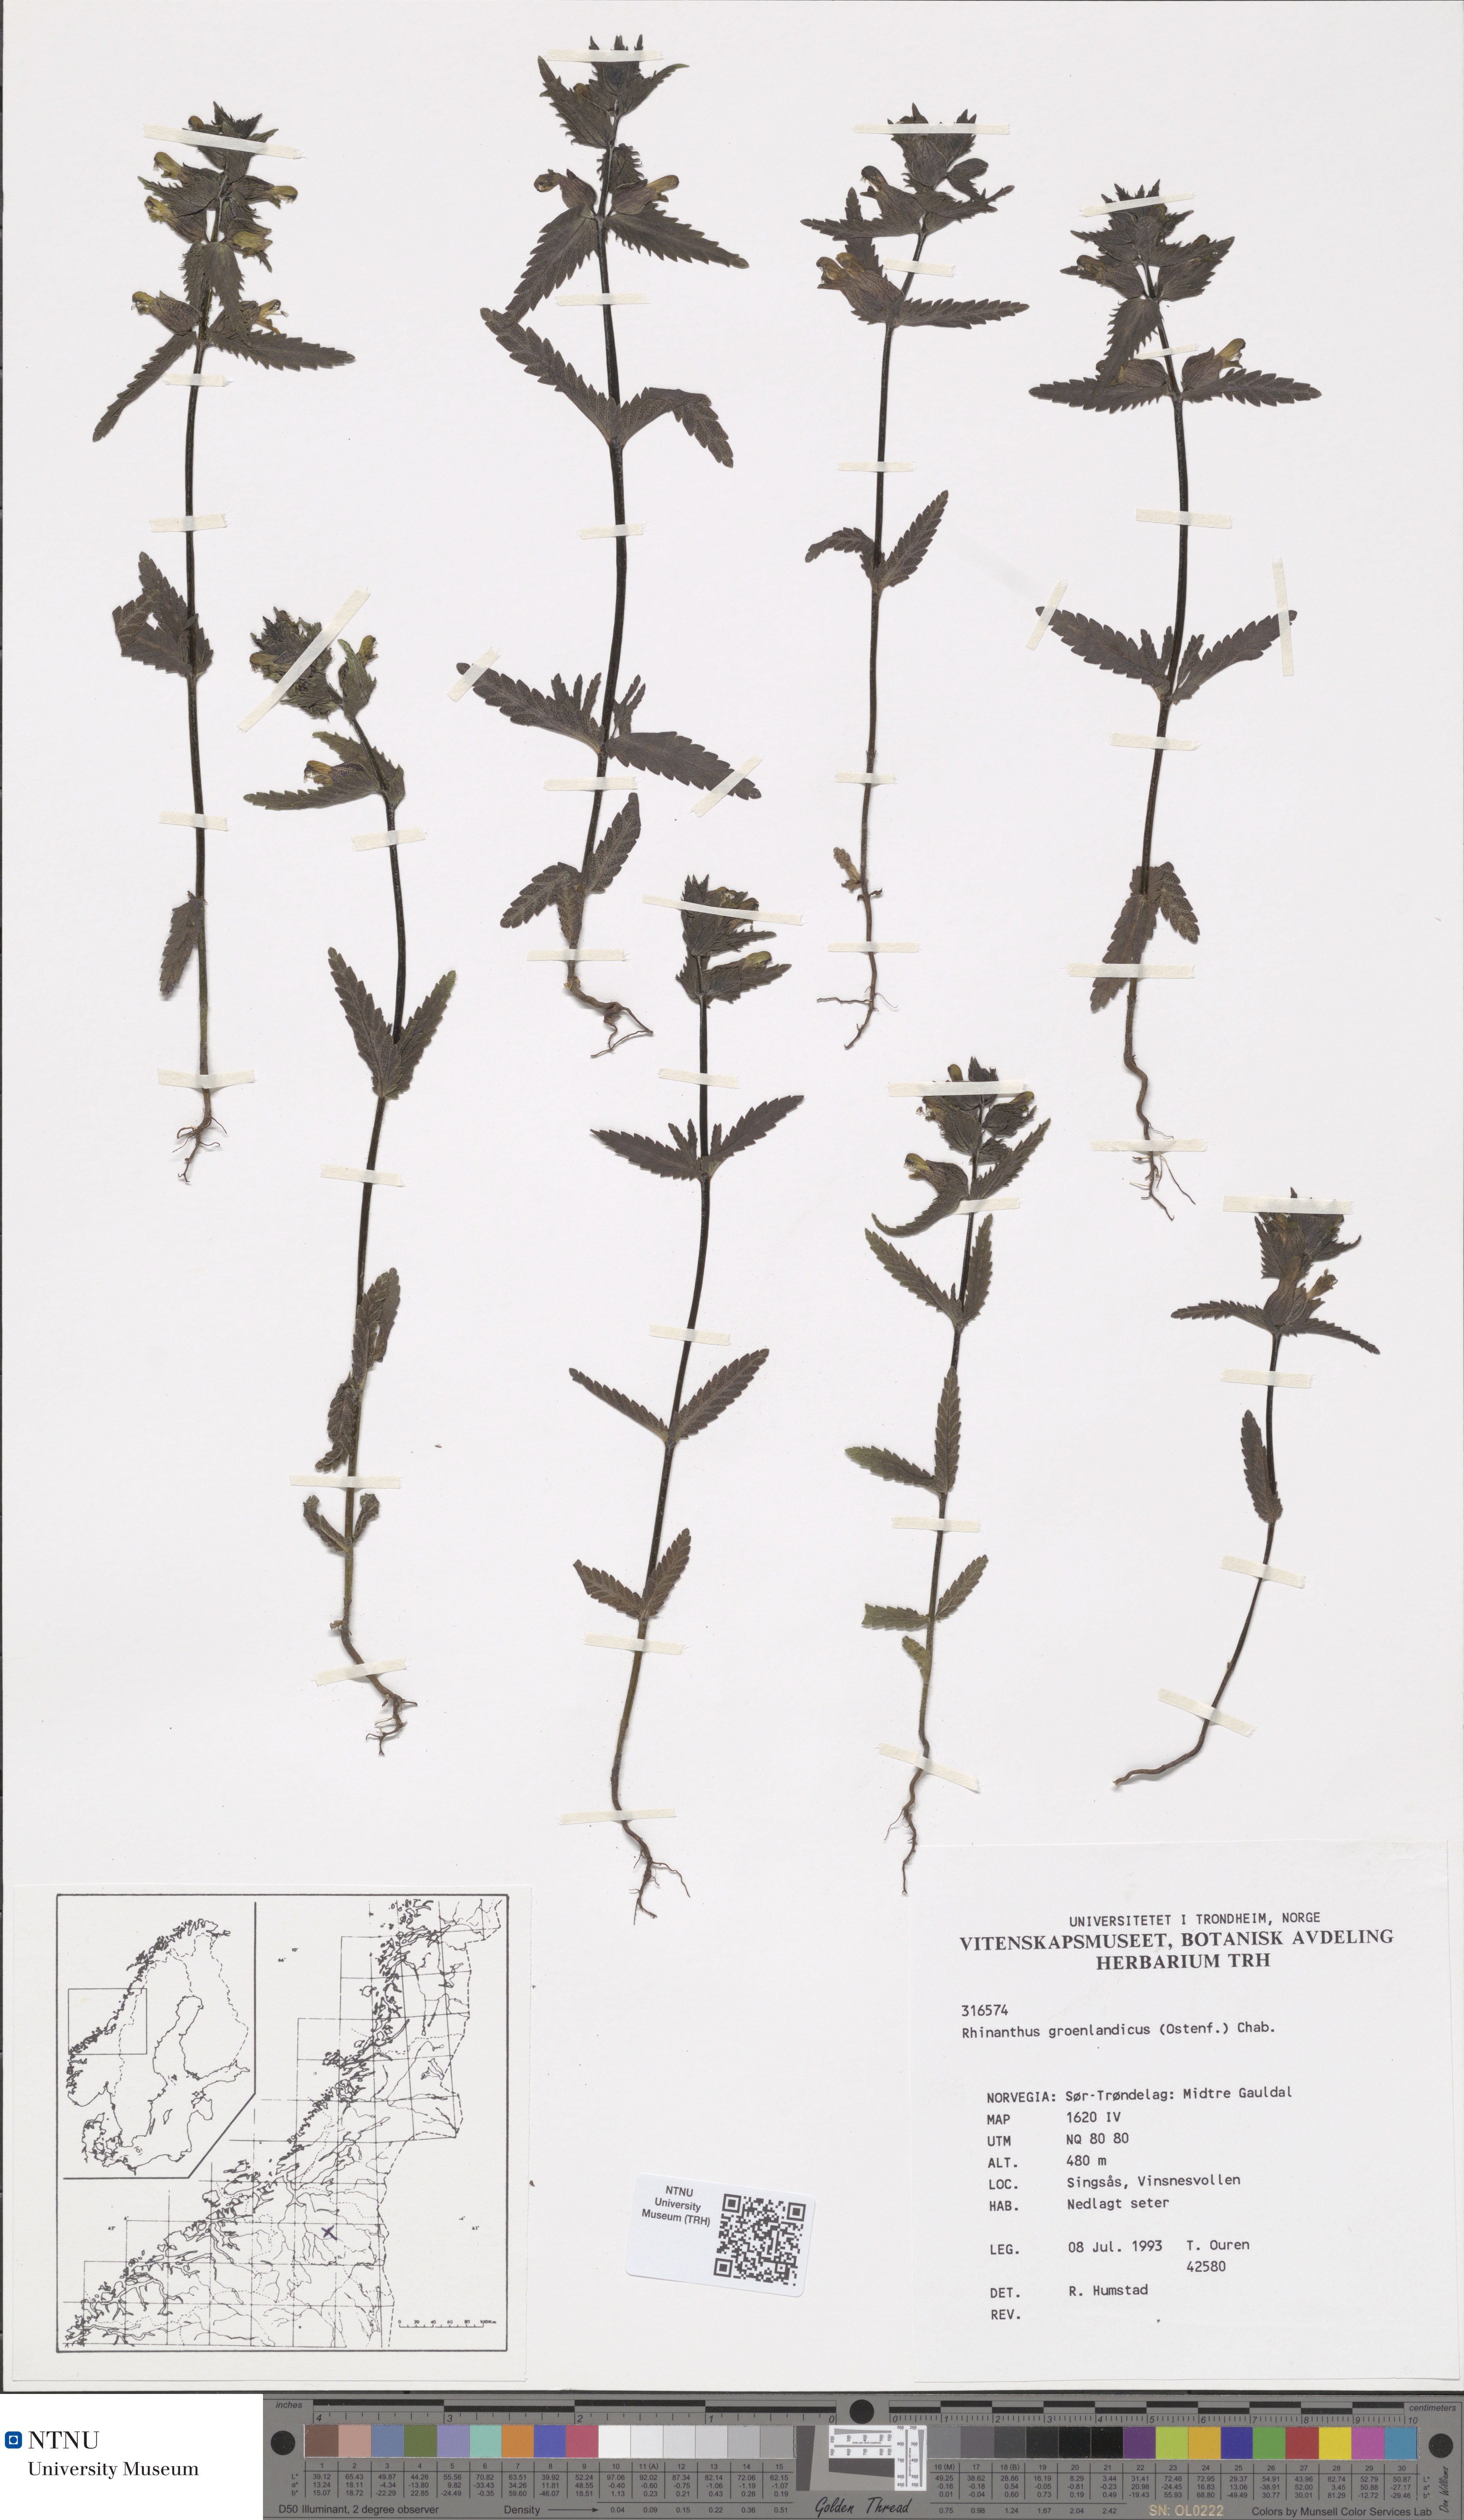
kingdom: Plantae
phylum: Tracheophyta
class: Magnoliopsida
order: Lamiales
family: Orobanchaceae
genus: Rhinanthus
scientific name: Rhinanthus groenlandicus
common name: Little yellow rattle
